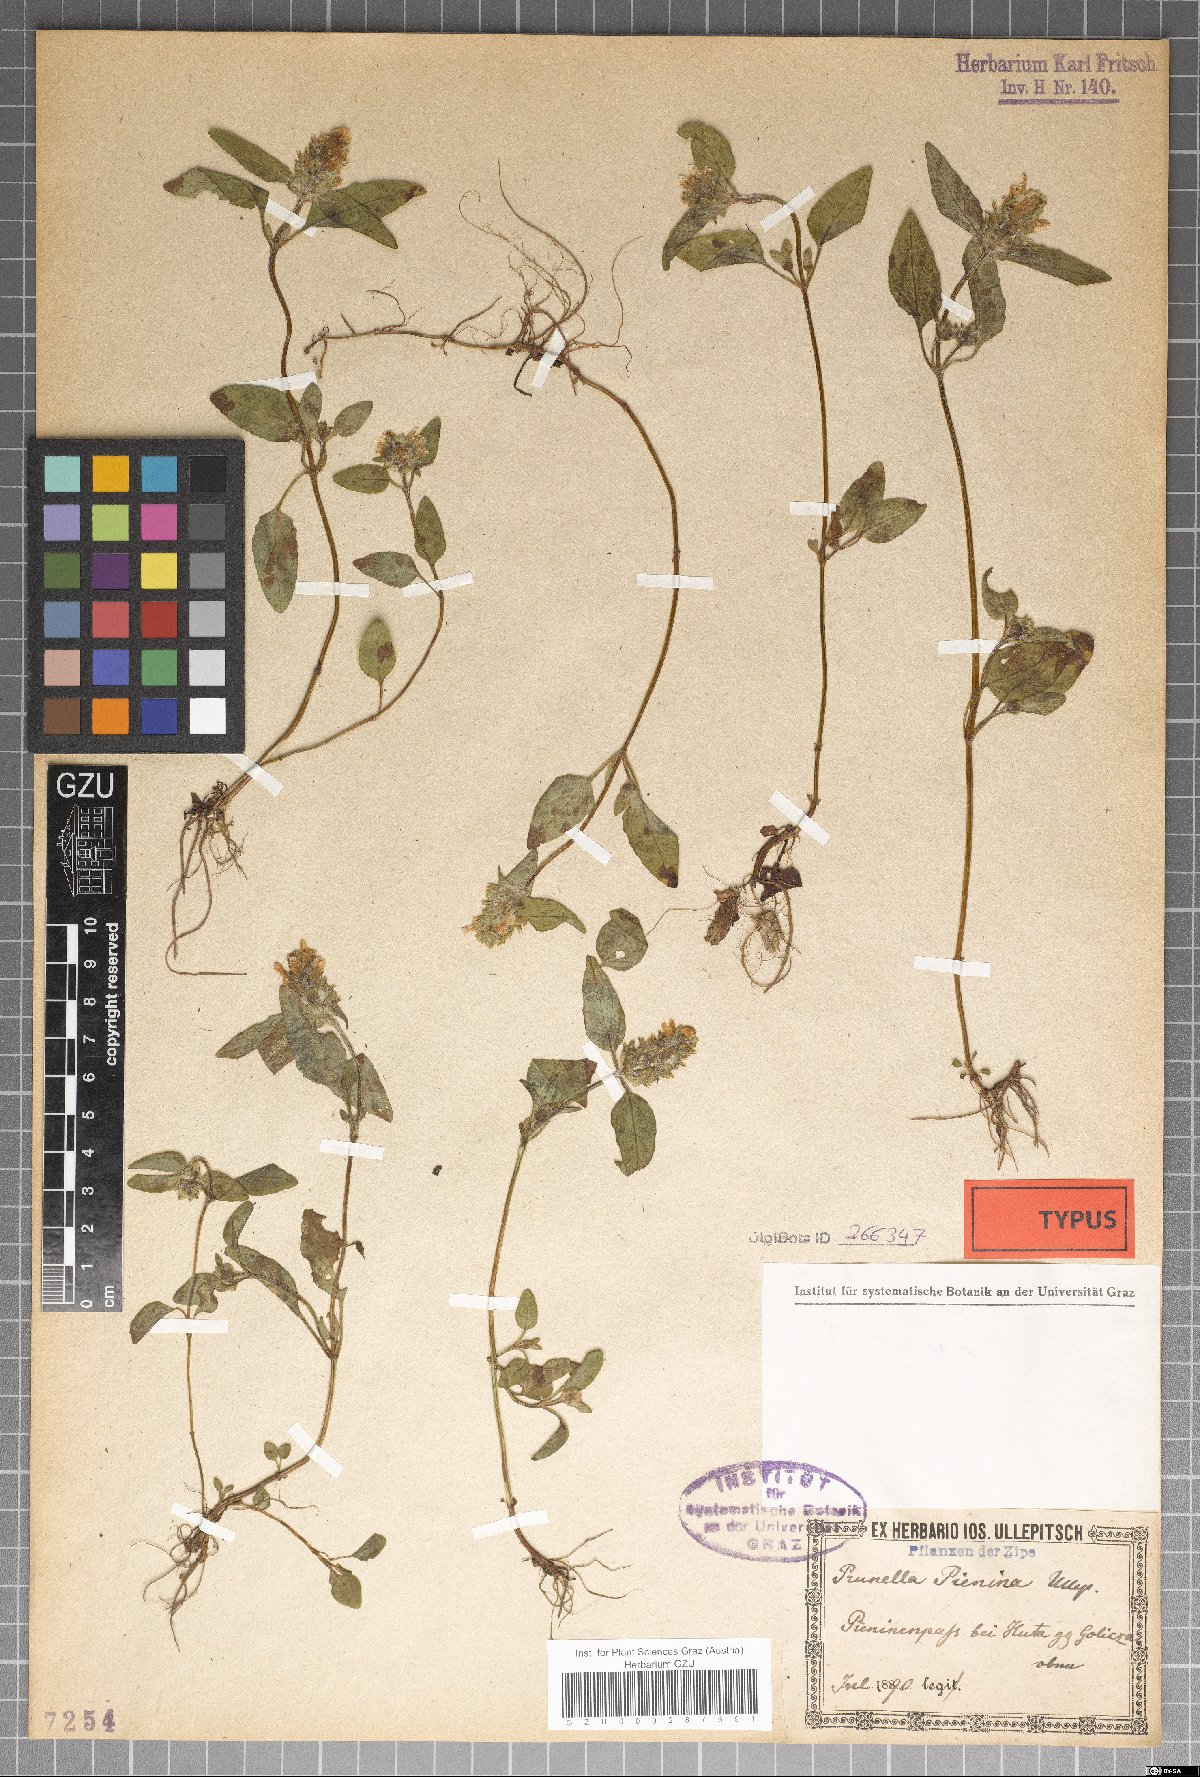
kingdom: Plantae
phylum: Tracheophyta
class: Magnoliopsida
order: Lamiales
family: Lamiaceae
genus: Prunella
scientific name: Prunella pienina
